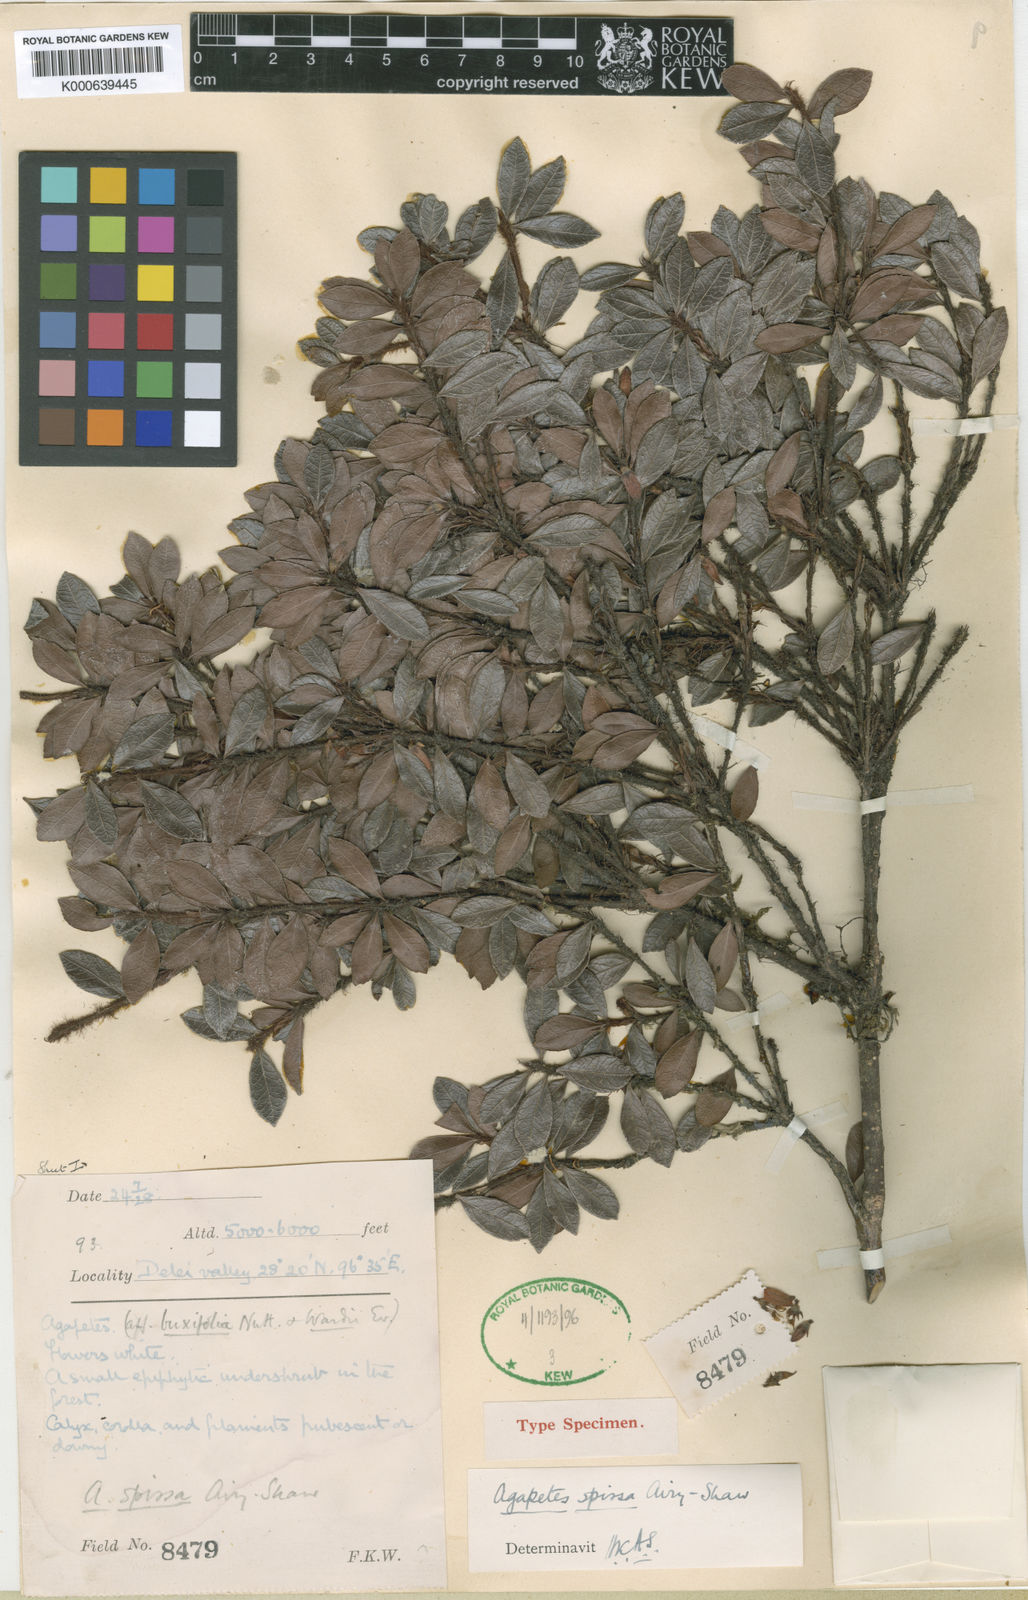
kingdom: Plantae
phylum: Tracheophyta
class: Magnoliopsida
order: Ericales
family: Ericaceae
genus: Agapetes
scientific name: Agapetes spissa
